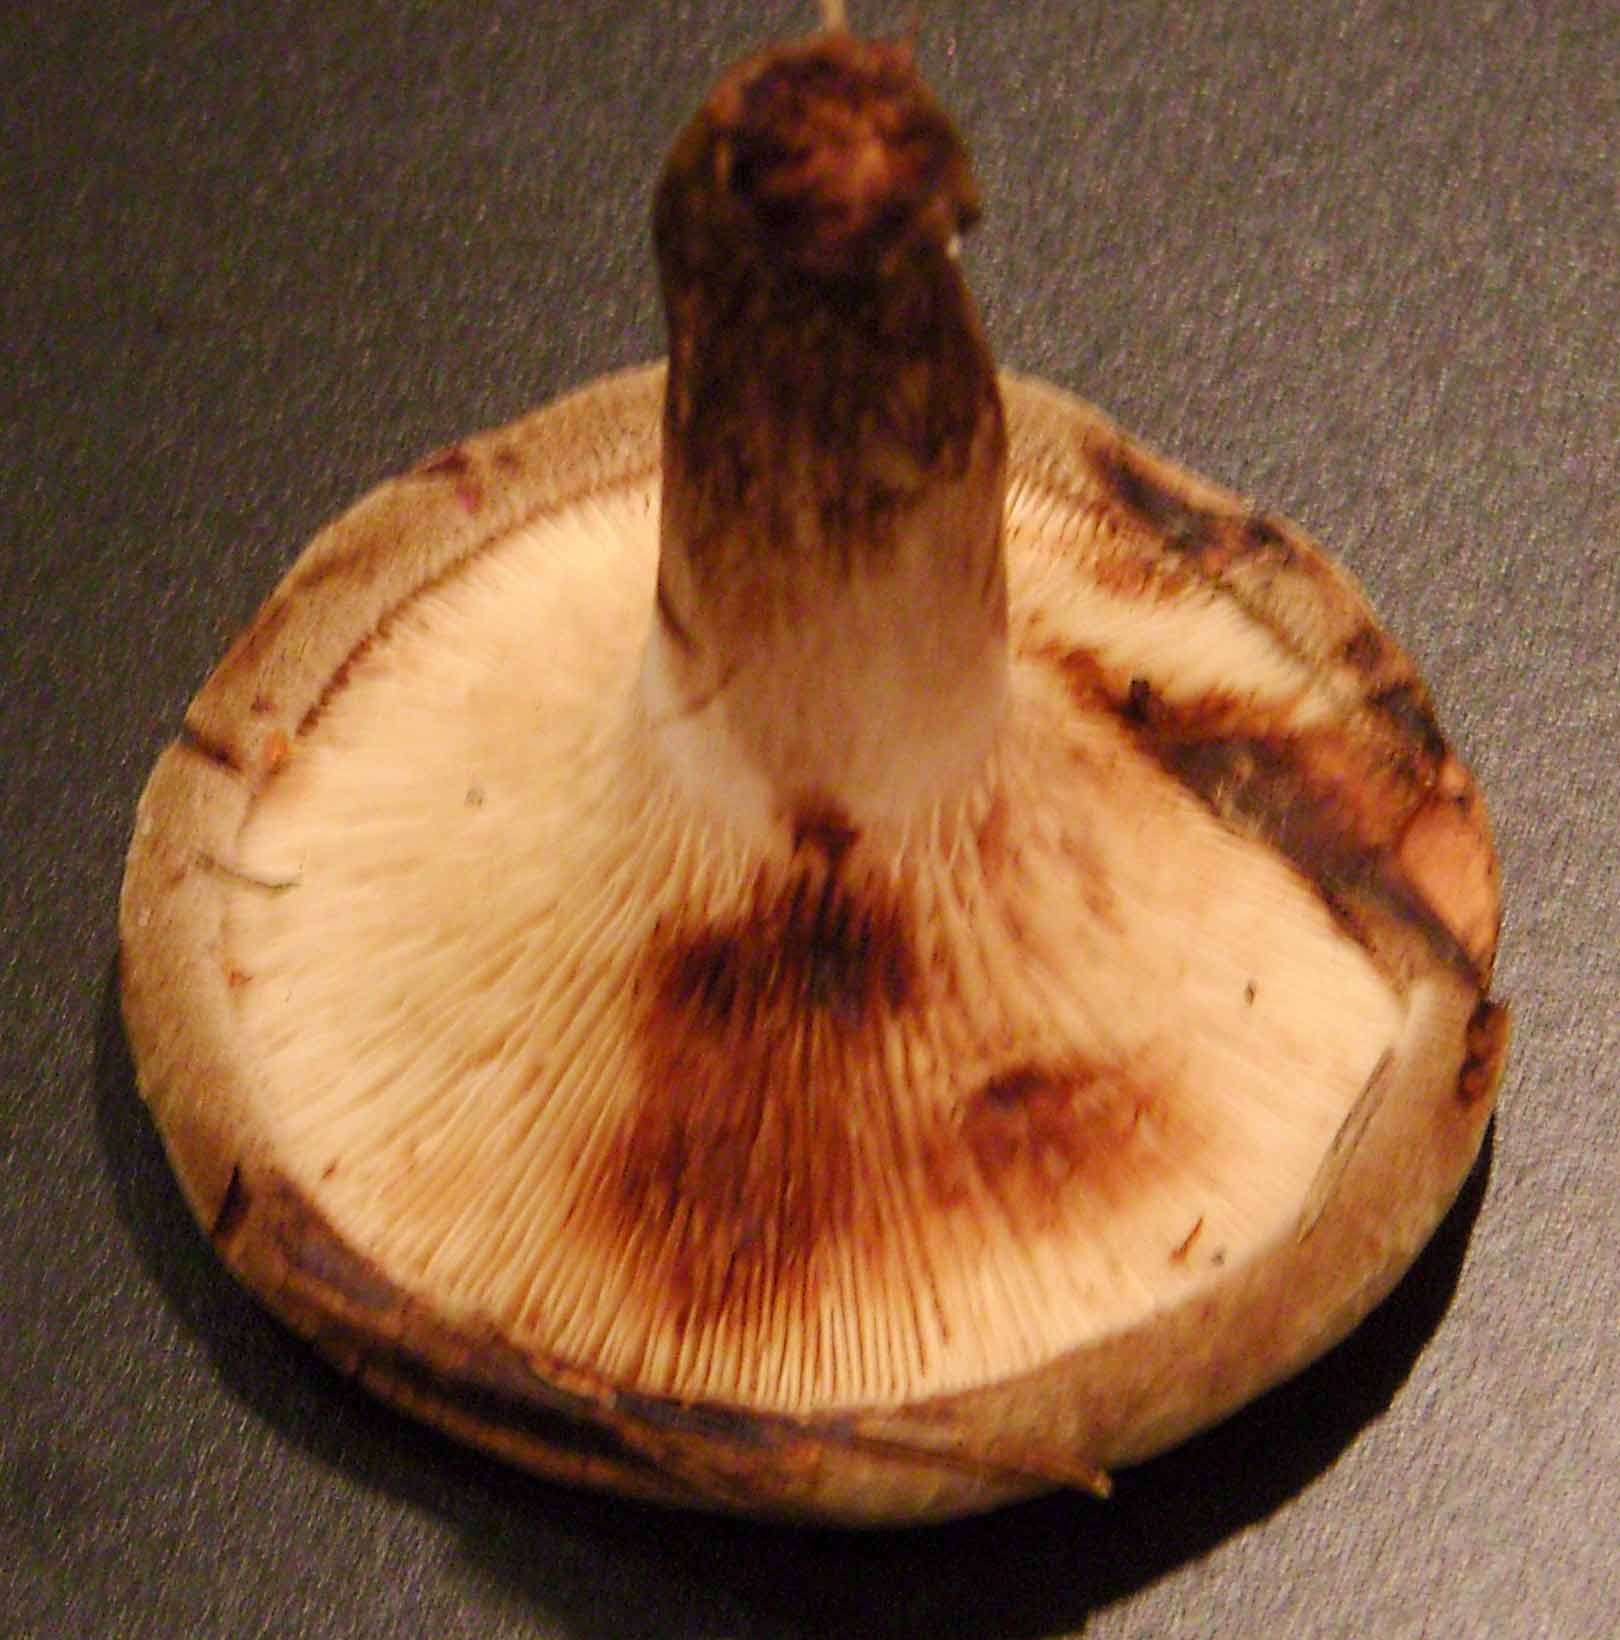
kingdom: Fungi
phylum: Basidiomycota
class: Agaricomycetes
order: Boletales
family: Paxillaceae
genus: Paxillus
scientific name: Paxillus involutus
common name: almindelig netbladhat
